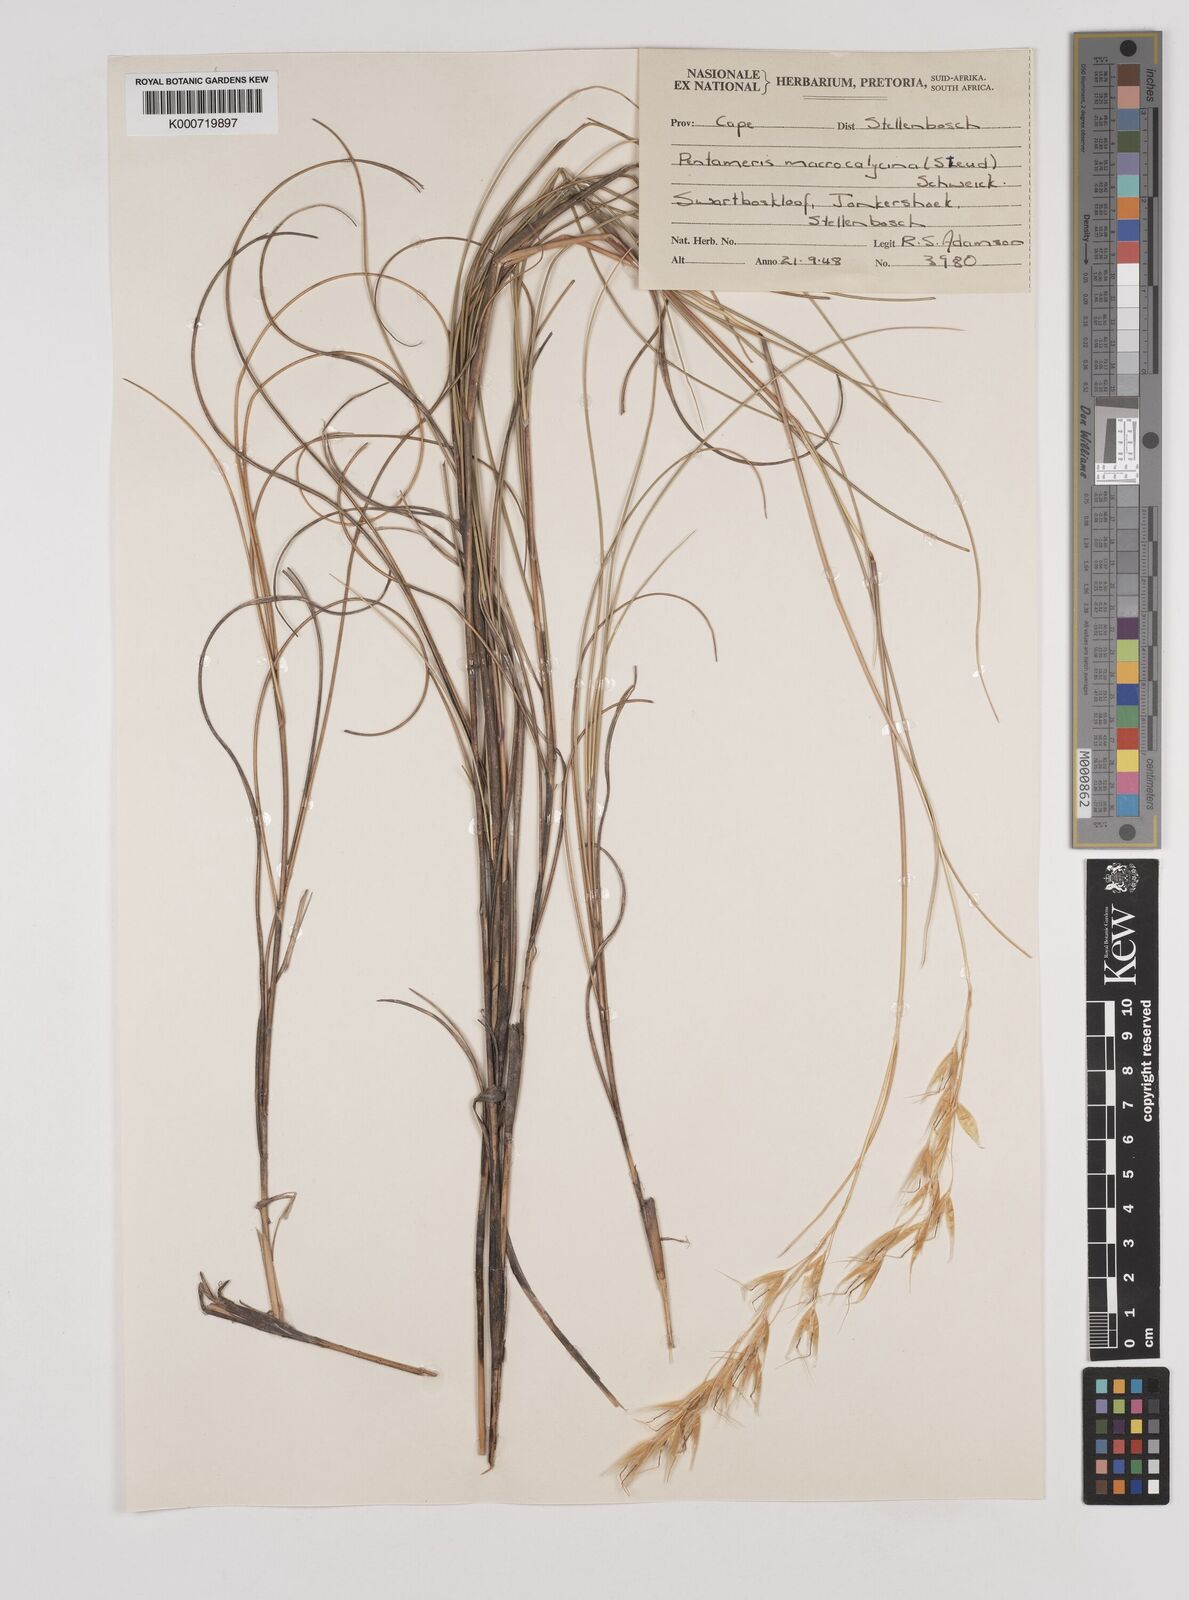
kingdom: Plantae
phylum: Tracheophyta
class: Liliopsida
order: Poales
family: Poaceae
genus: Pentameris
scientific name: Pentameris macrocalycina
